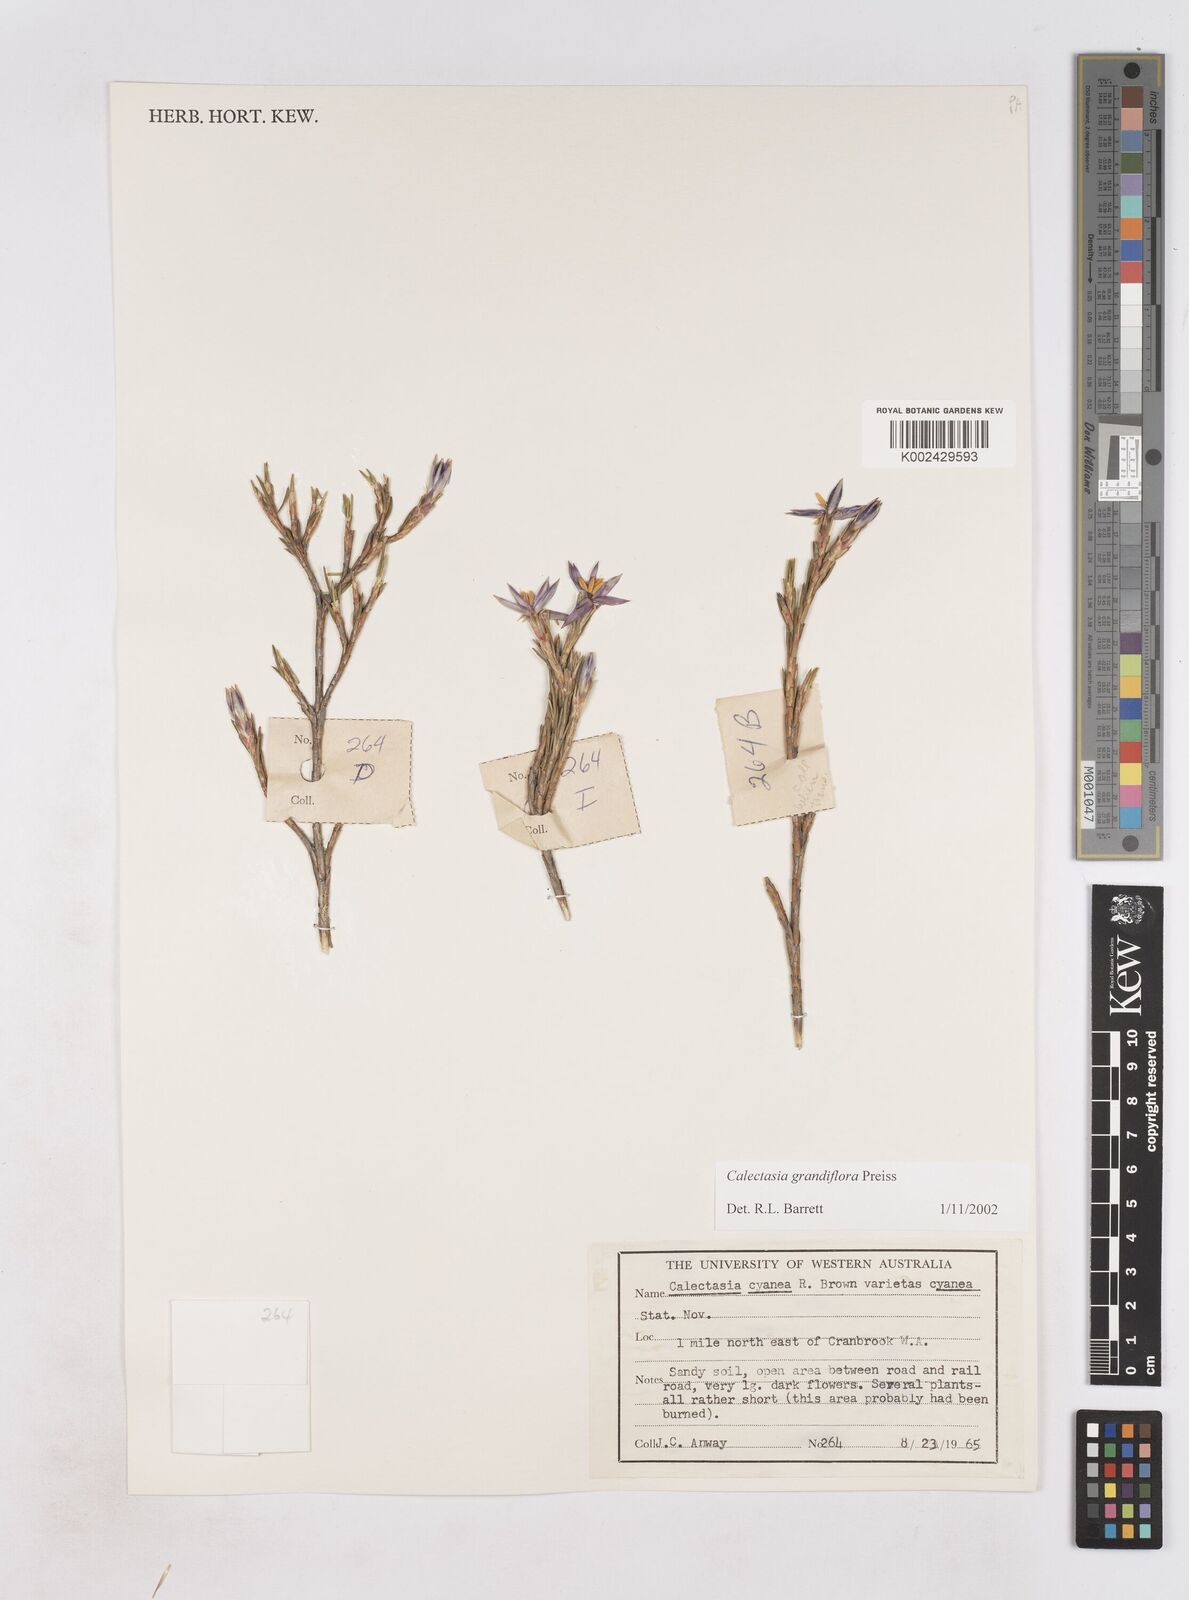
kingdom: Plantae
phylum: Tracheophyta
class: Liliopsida
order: Arecales
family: Dasypogonaceae
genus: Calectasia
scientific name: Calectasia grandiflora
